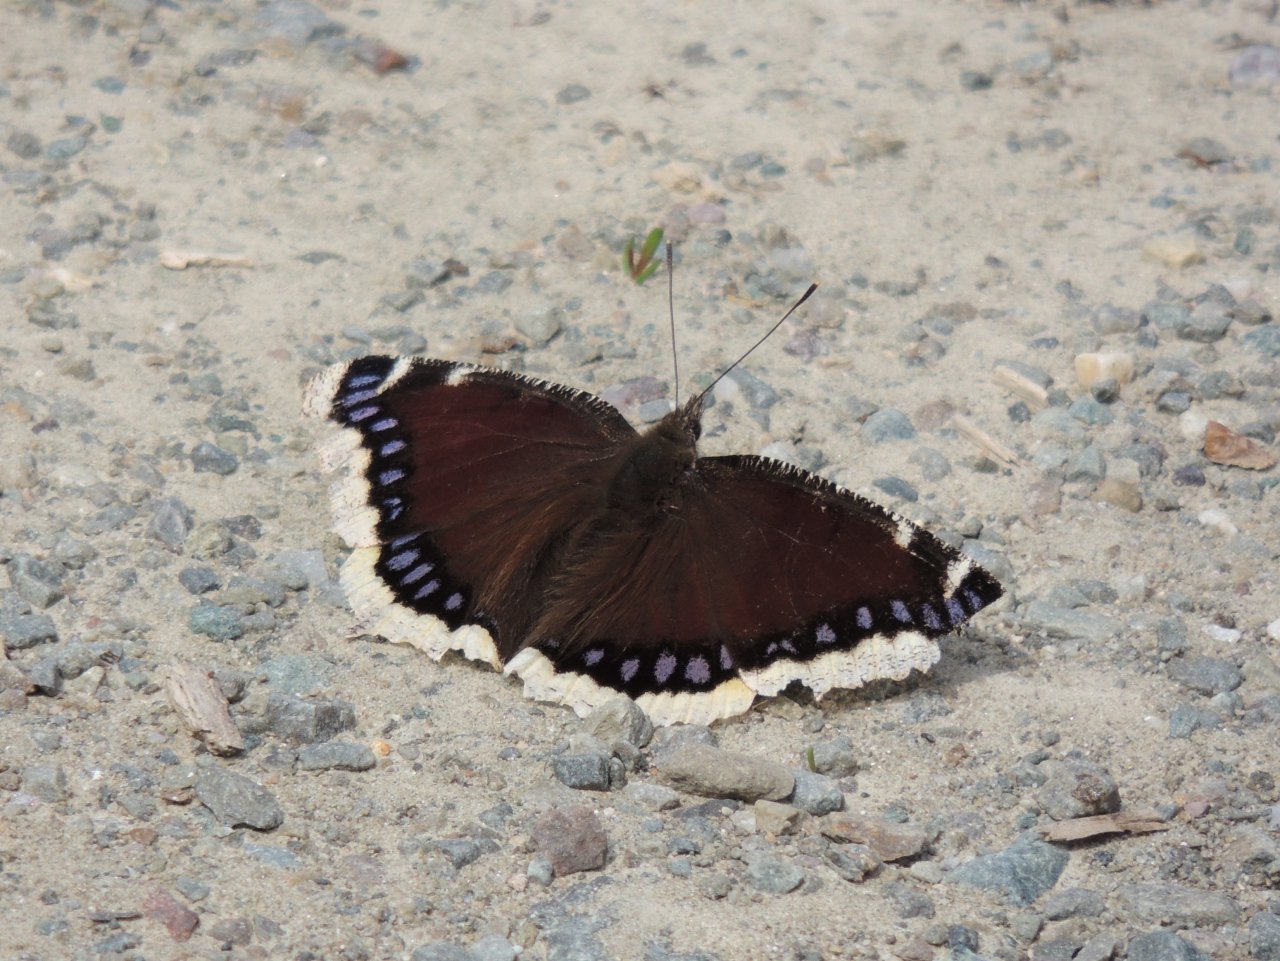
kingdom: Animalia
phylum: Arthropoda
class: Insecta
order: Lepidoptera
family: Nymphalidae
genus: Nymphalis
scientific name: Nymphalis antiopa
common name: Mourning Cloak
